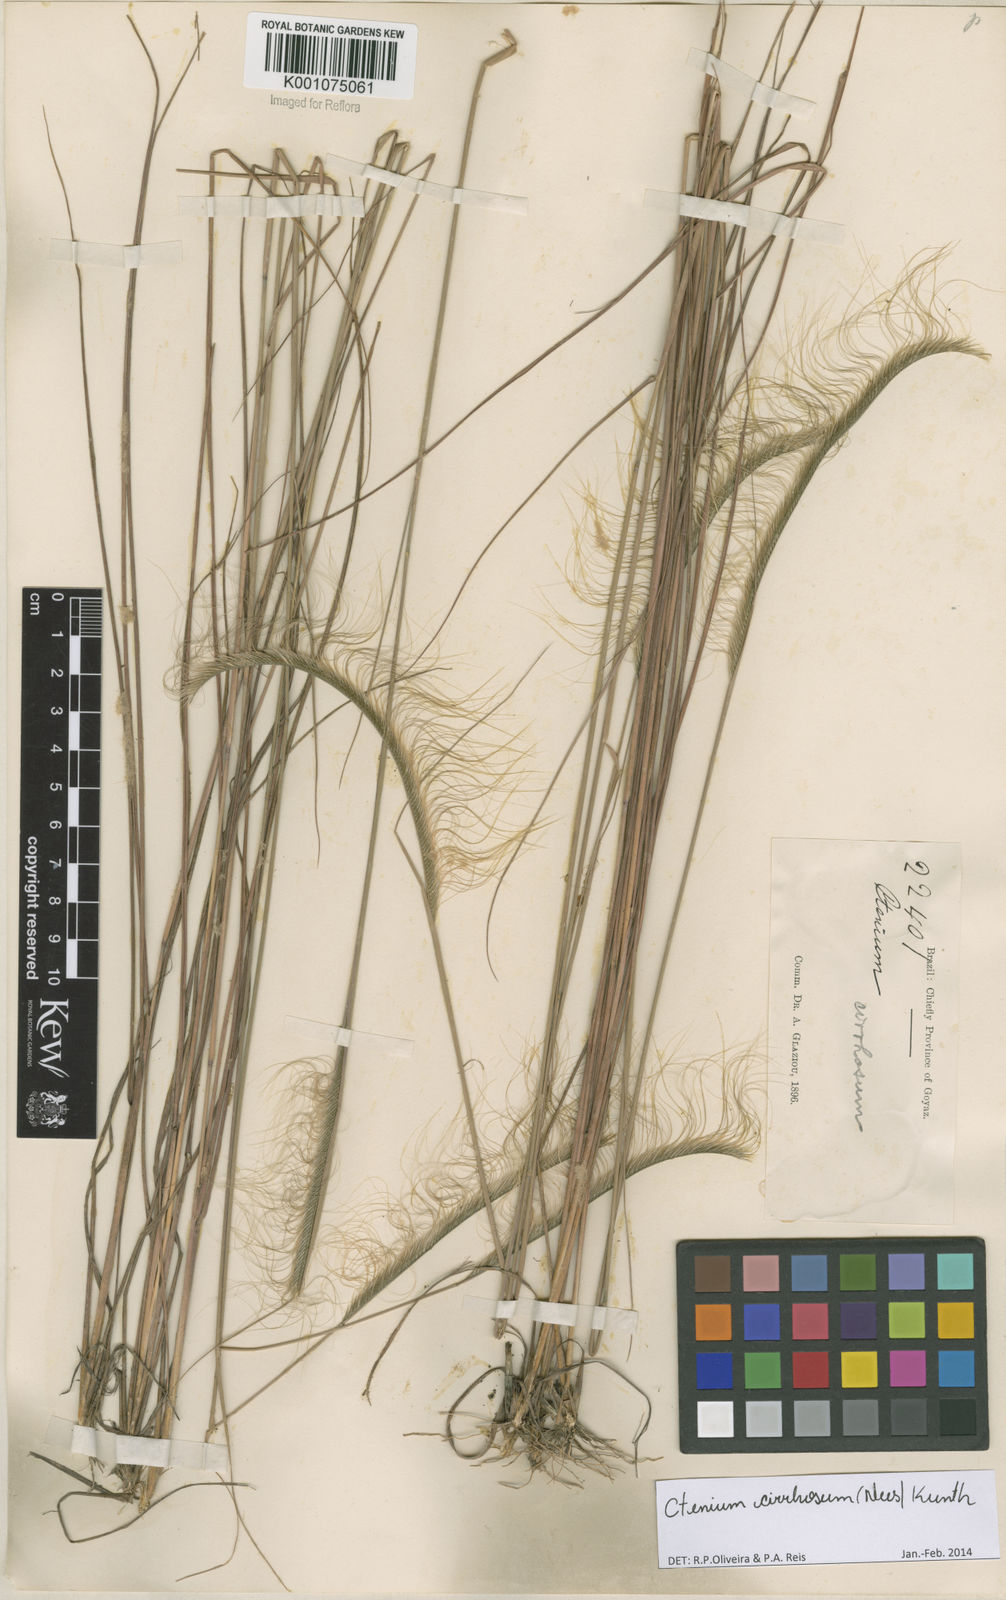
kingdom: Plantae
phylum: Tracheophyta
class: Liliopsida
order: Poales
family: Poaceae
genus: Ctenium
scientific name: Ctenium cirrhosum
